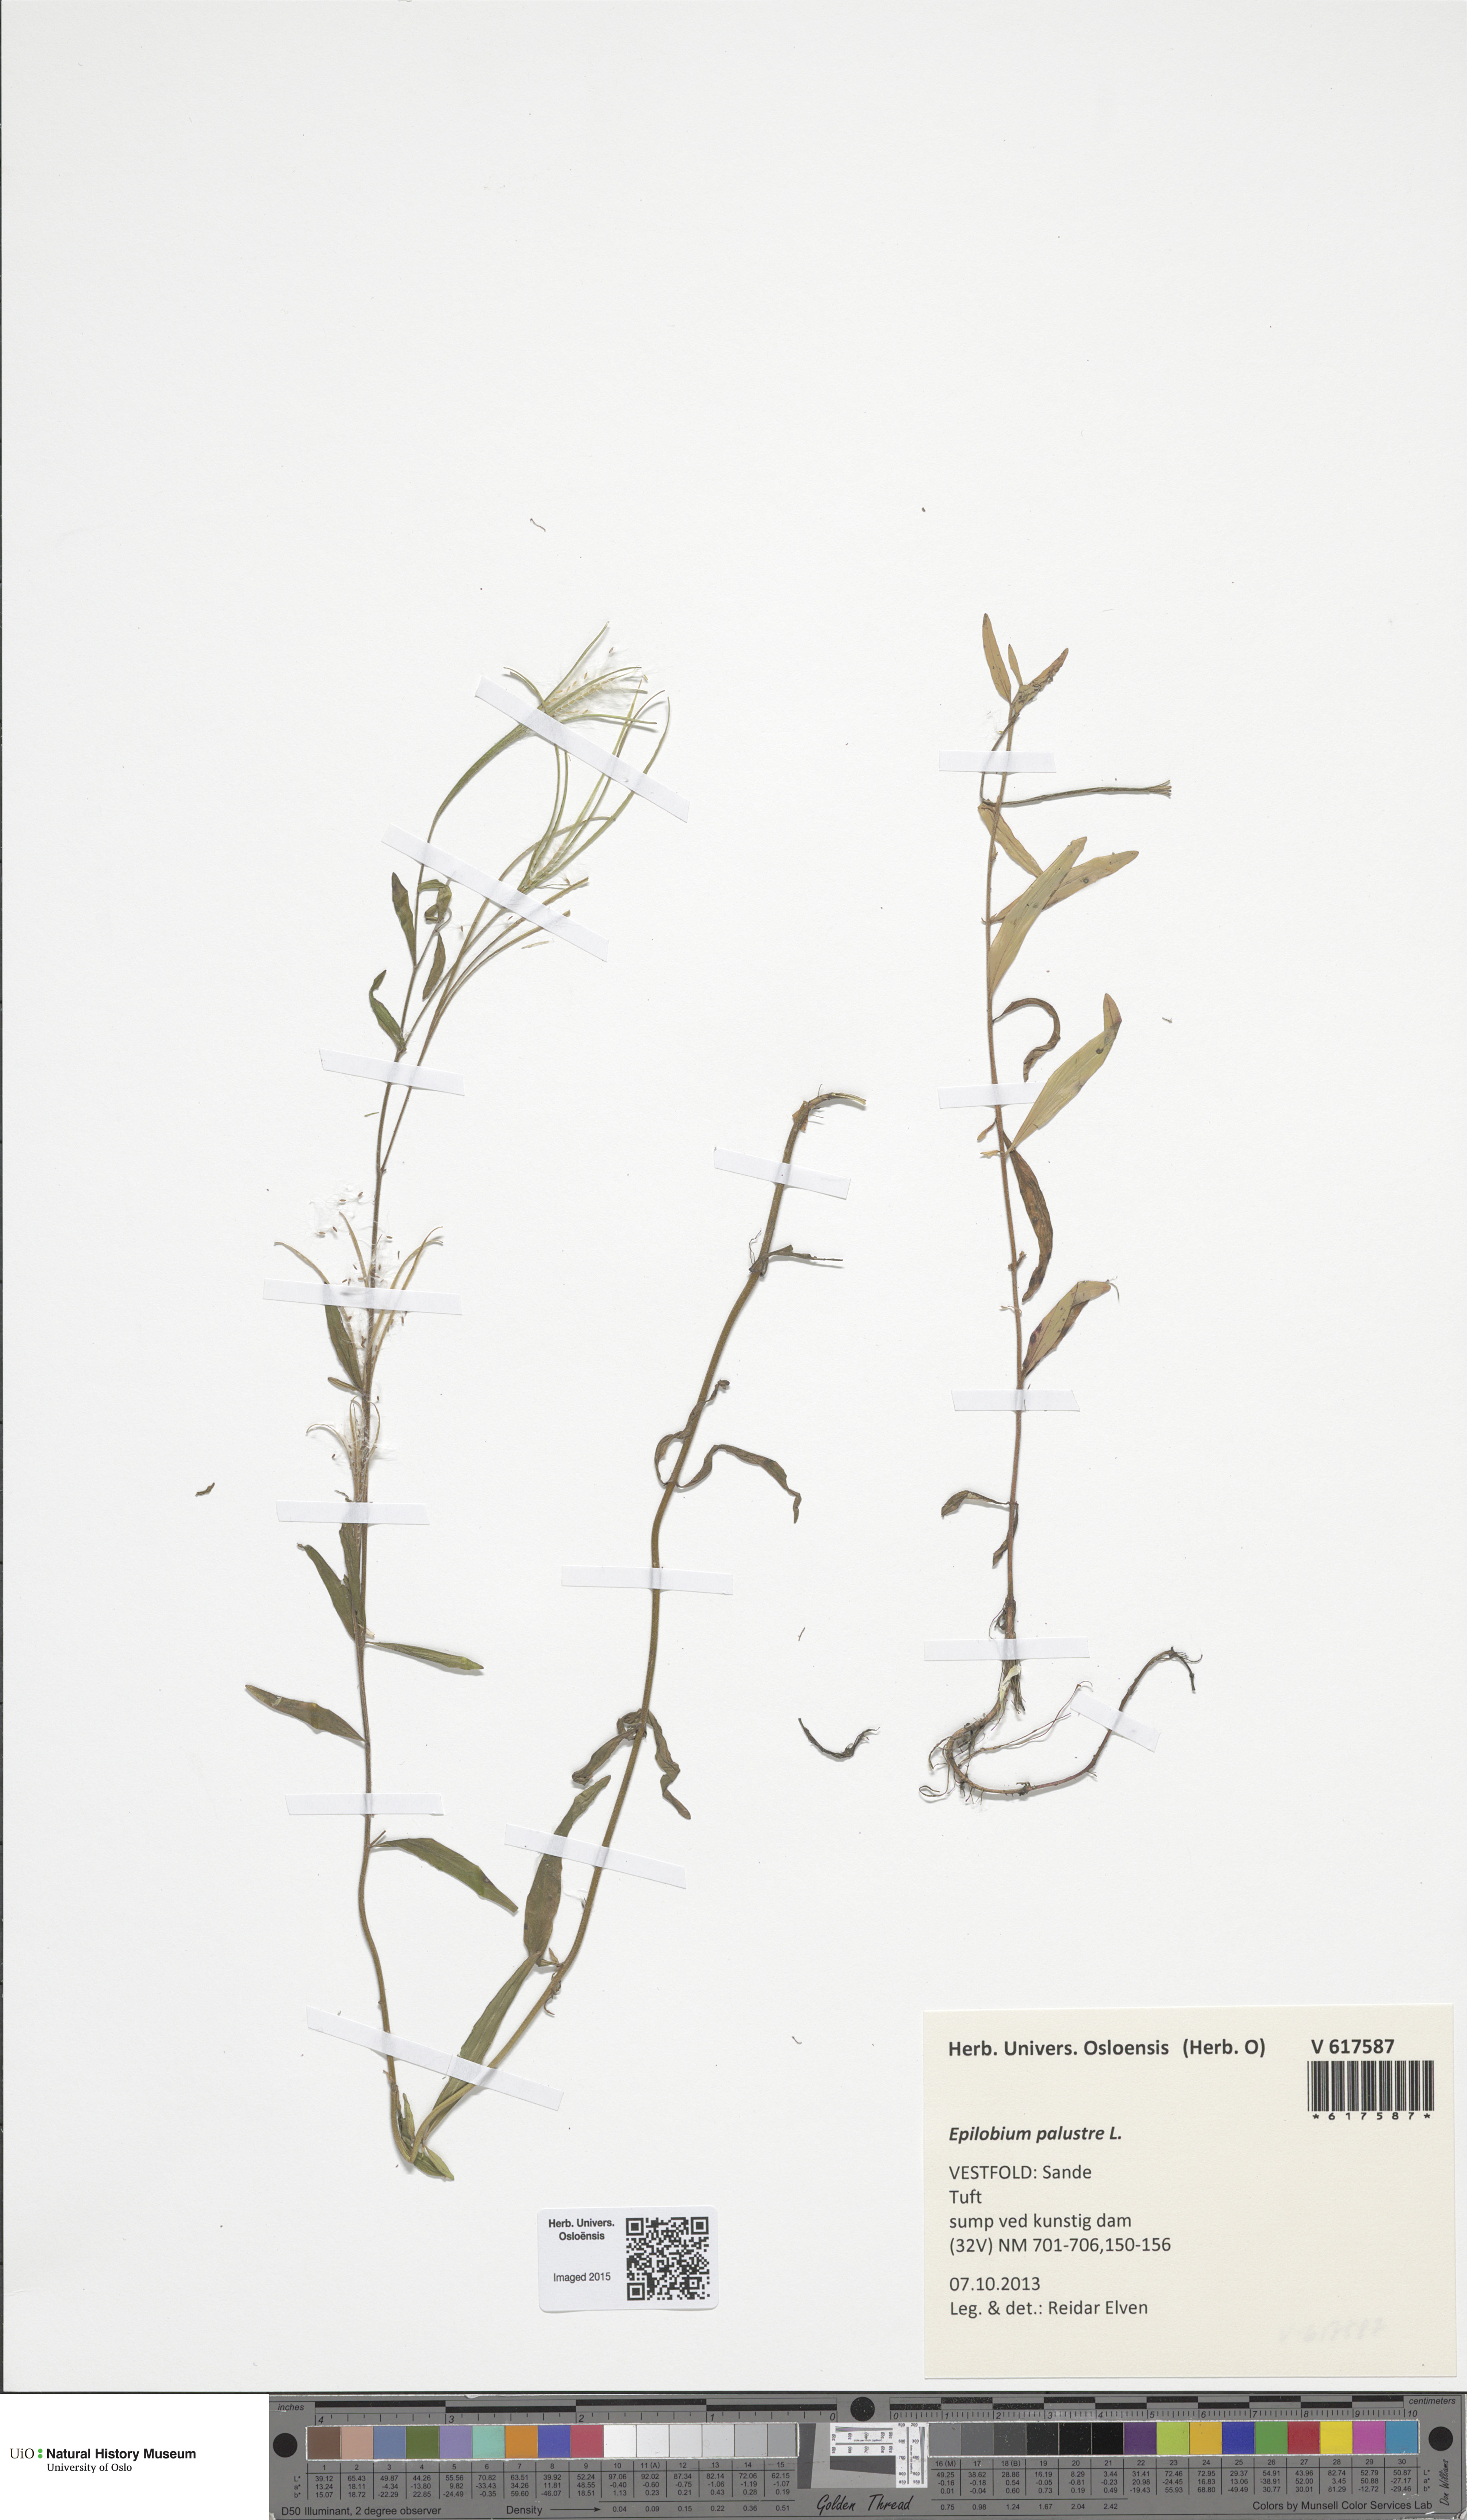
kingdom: Plantae
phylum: Tracheophyta
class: Magnoliopsida
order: Myrtales
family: Onagraceae
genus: Epilobium
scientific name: Epilobium palustre
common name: Marsh willowherb
